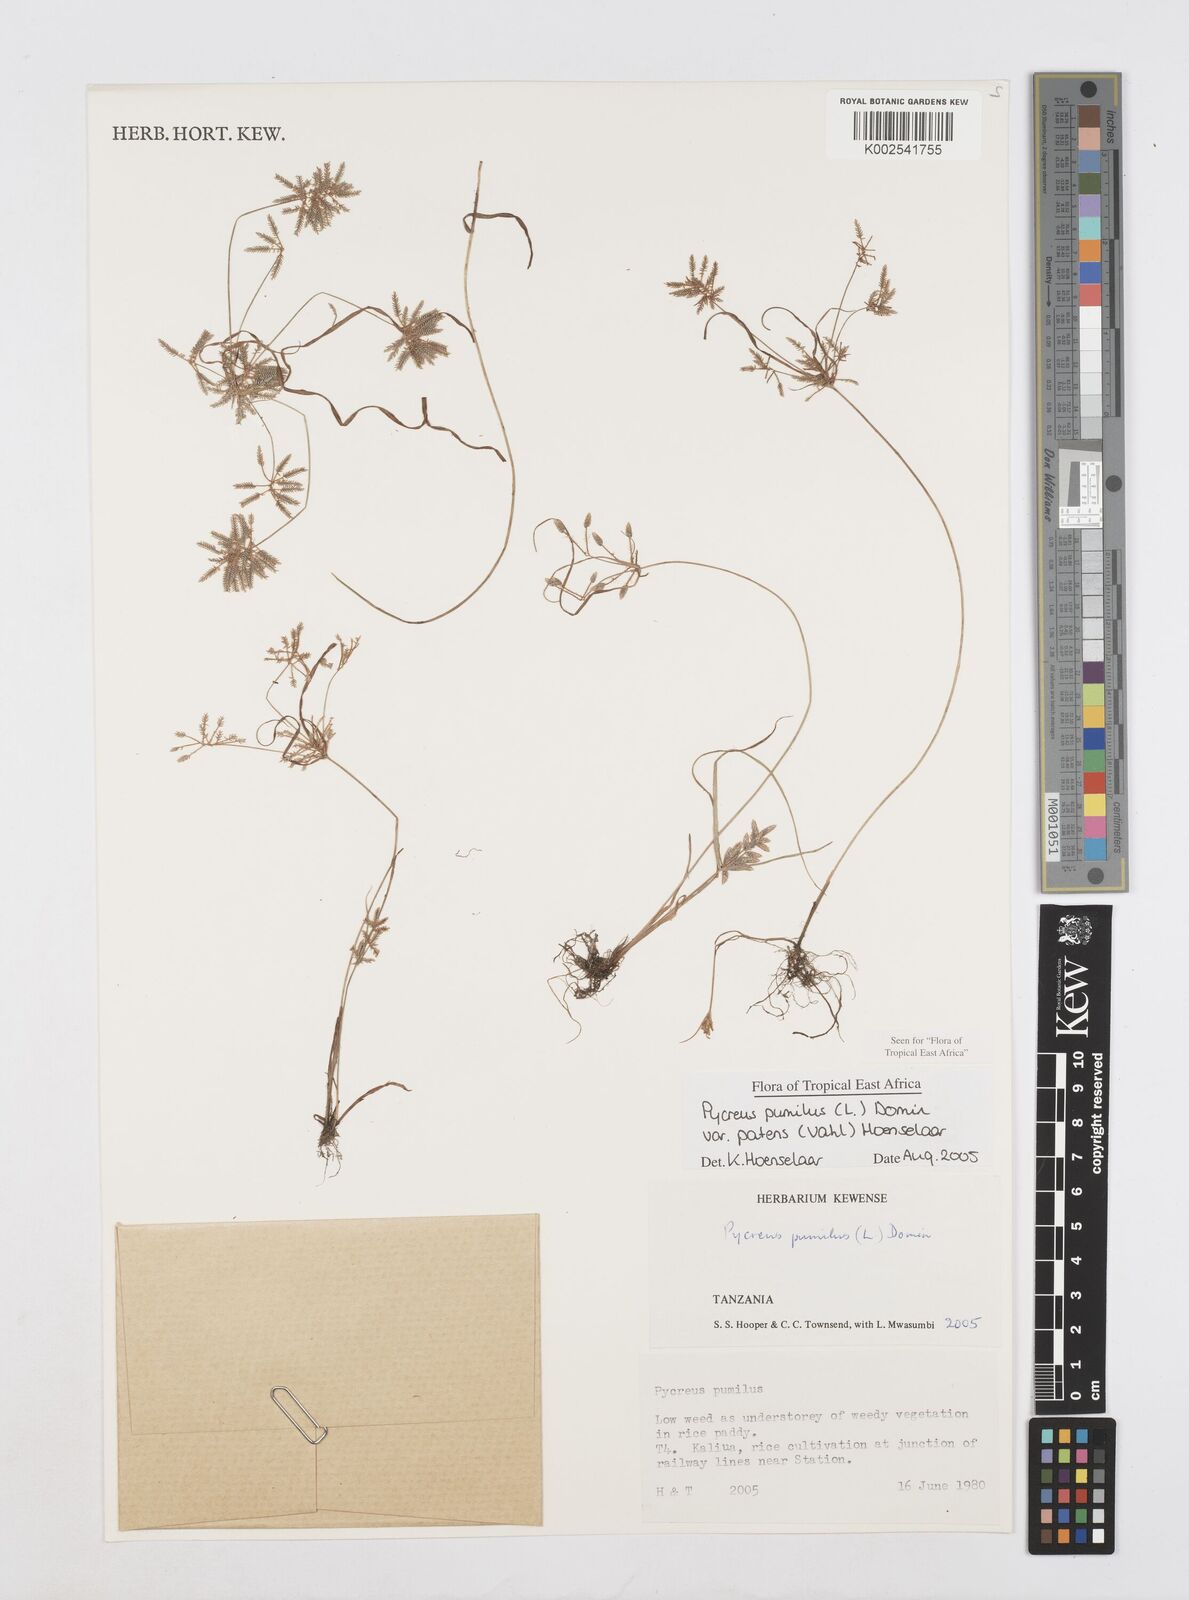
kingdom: Plantae
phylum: Tracheophyta
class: Liliopsida
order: Poales
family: Cyperaceae
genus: Cyperus
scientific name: Cyperus pumilus
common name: Low flatsedge
